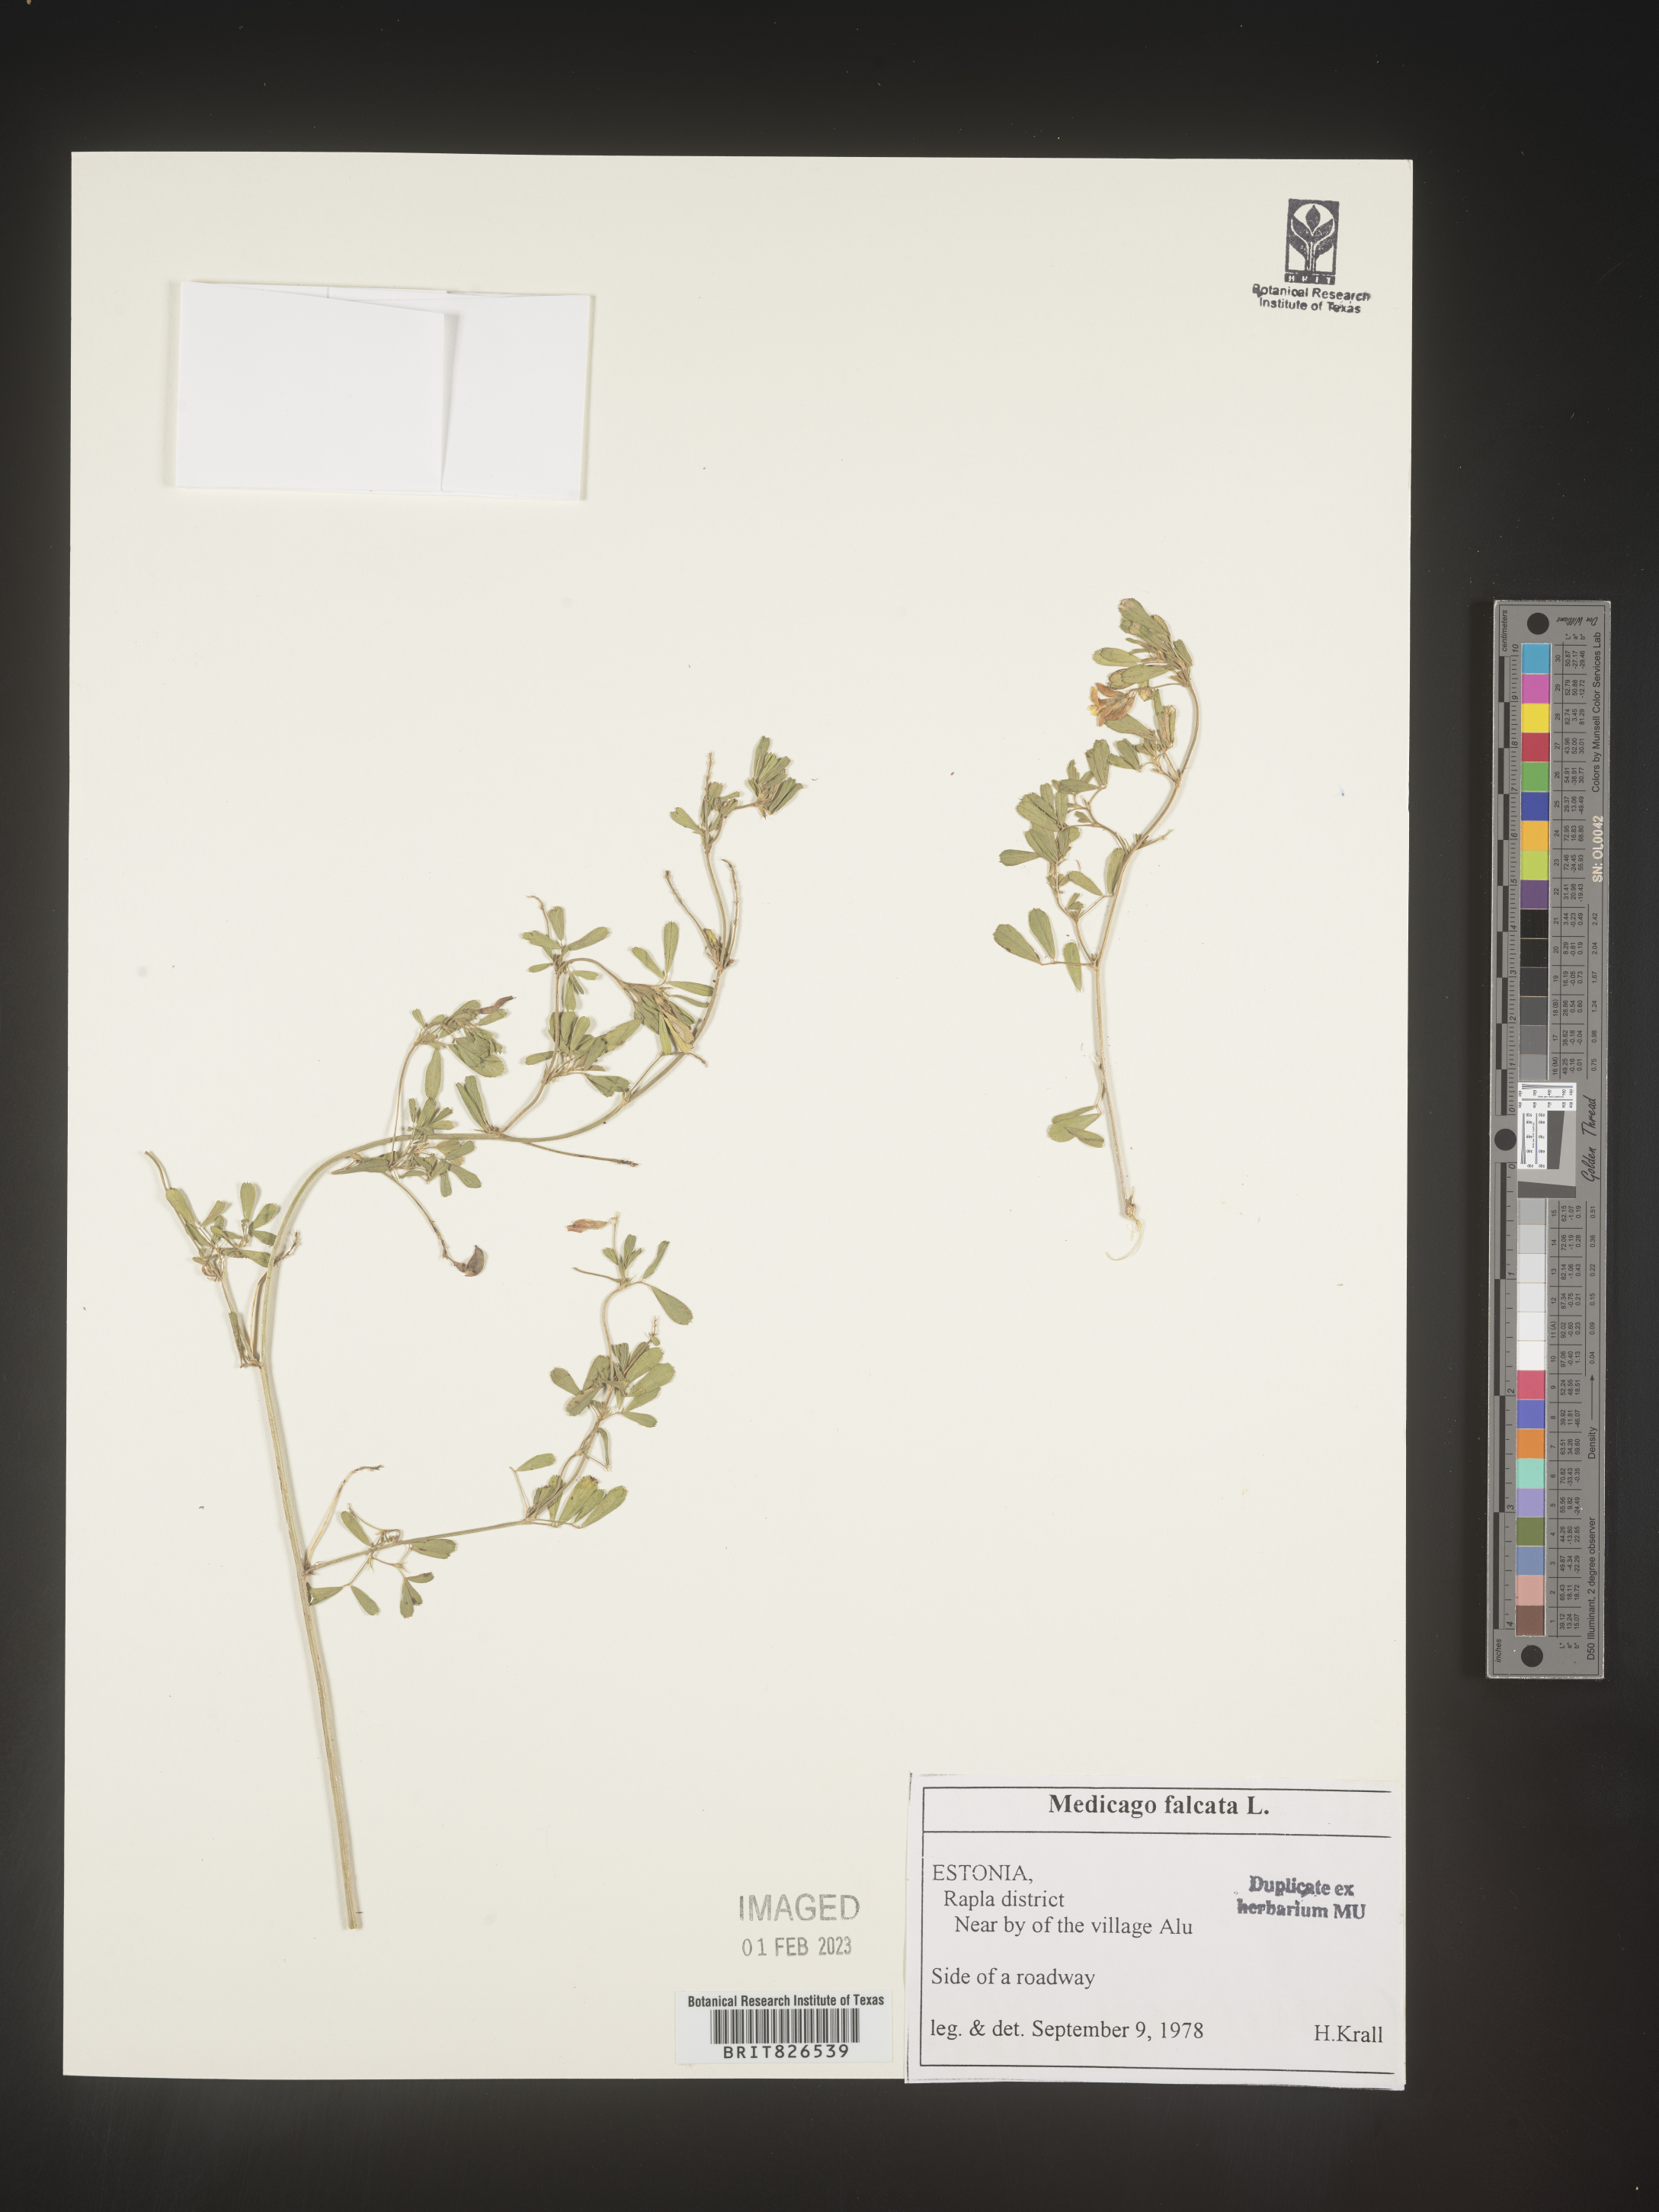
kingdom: Plantae
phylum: Tracheophyta
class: Magnoliopsida
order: Fabales
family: Fabaceae
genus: Medicago
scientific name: Medicago
